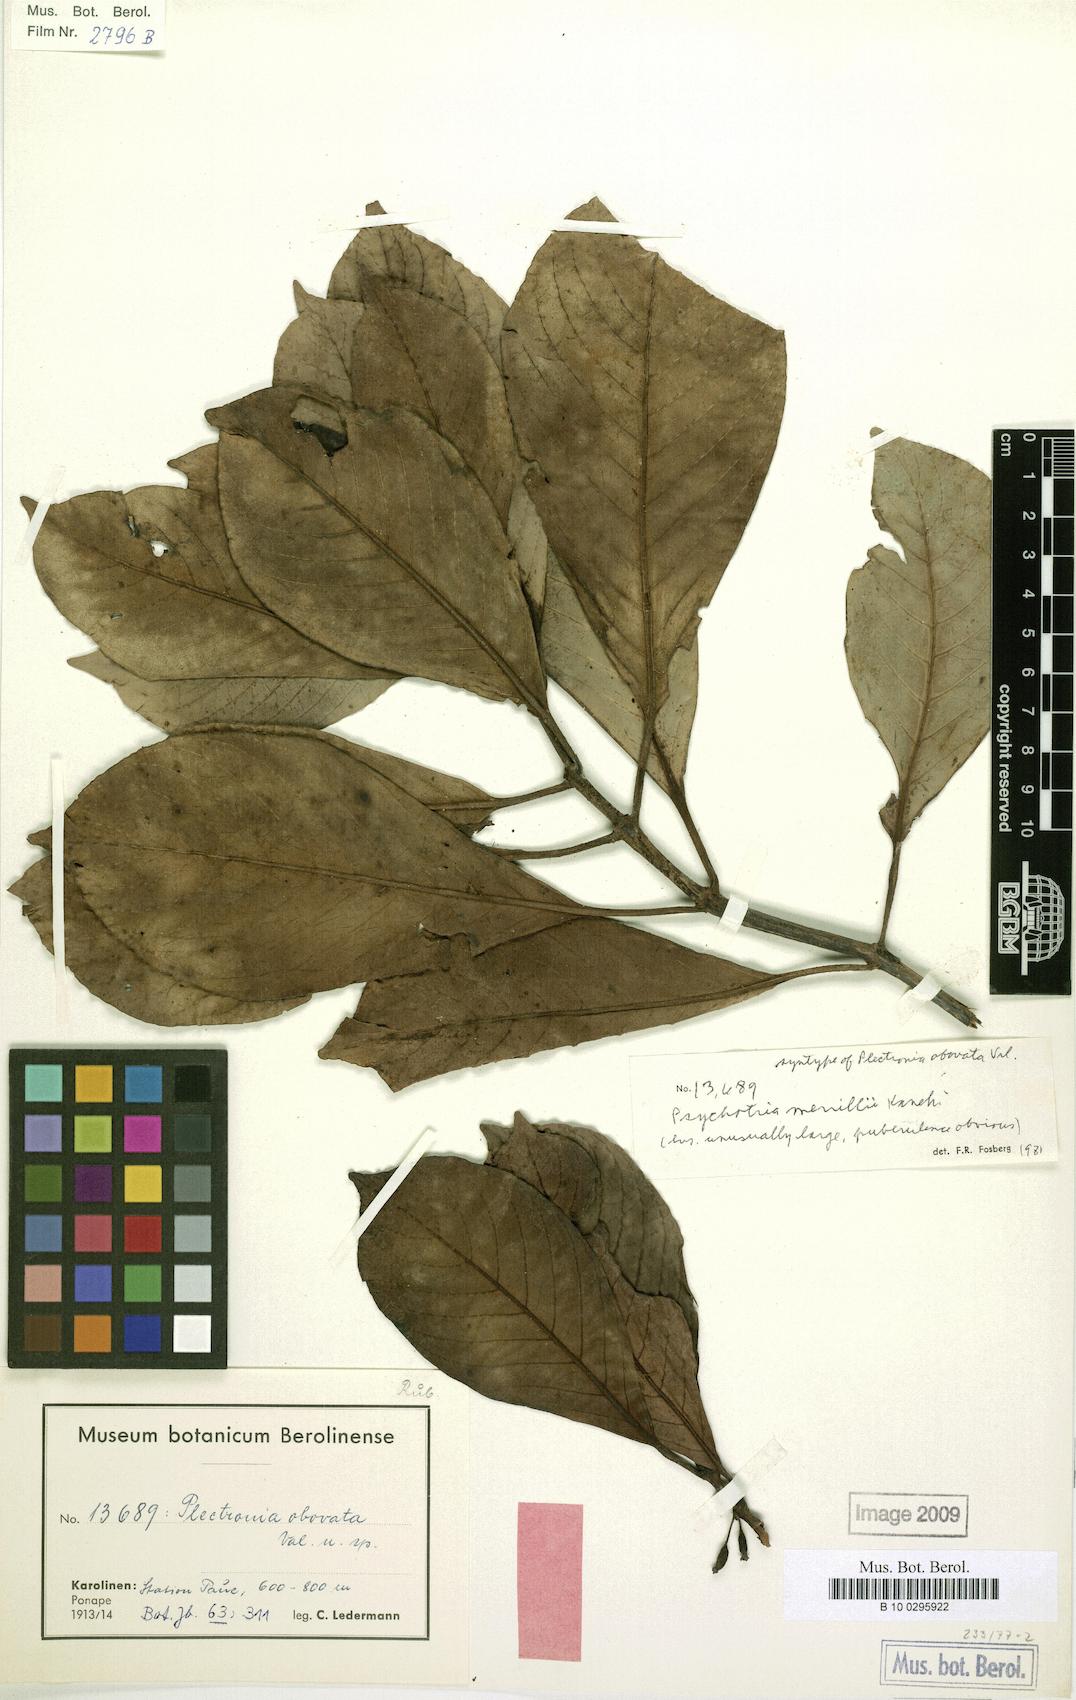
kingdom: Plantae
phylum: Tracheophyta
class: Magnoliopsida
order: Gentianales
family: Rubiaceae
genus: Psychotria
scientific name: Psychotria merrillii
